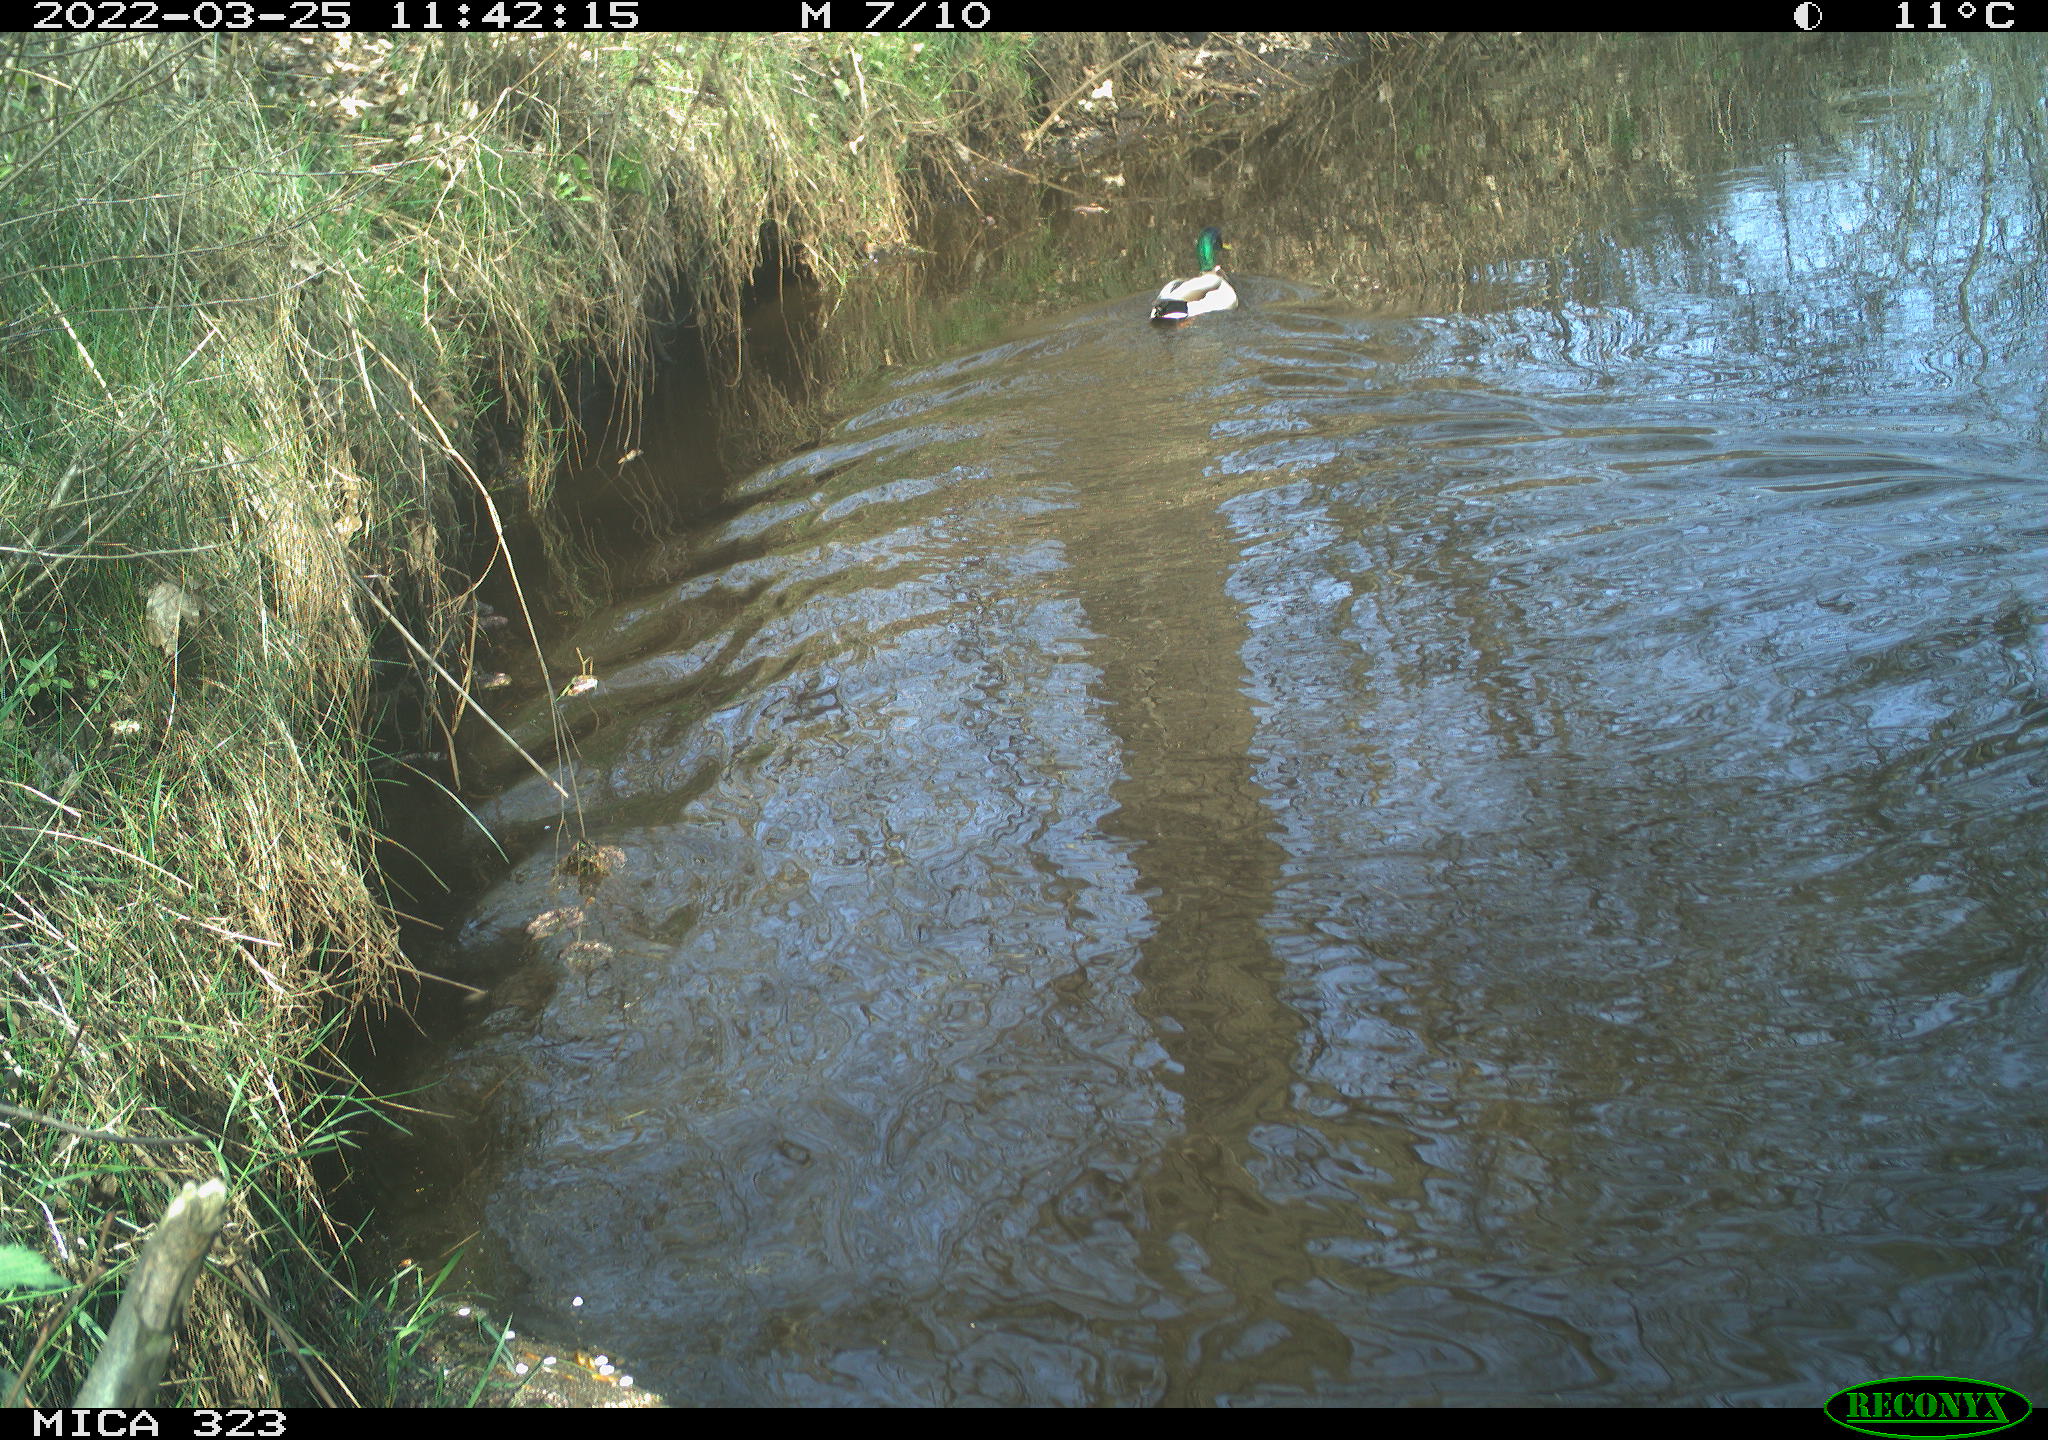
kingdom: Animalia
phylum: Chordata
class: Aves
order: Anseriformes
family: Anatidae
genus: Anas
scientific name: Anas platyrhynchos
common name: Mallard
